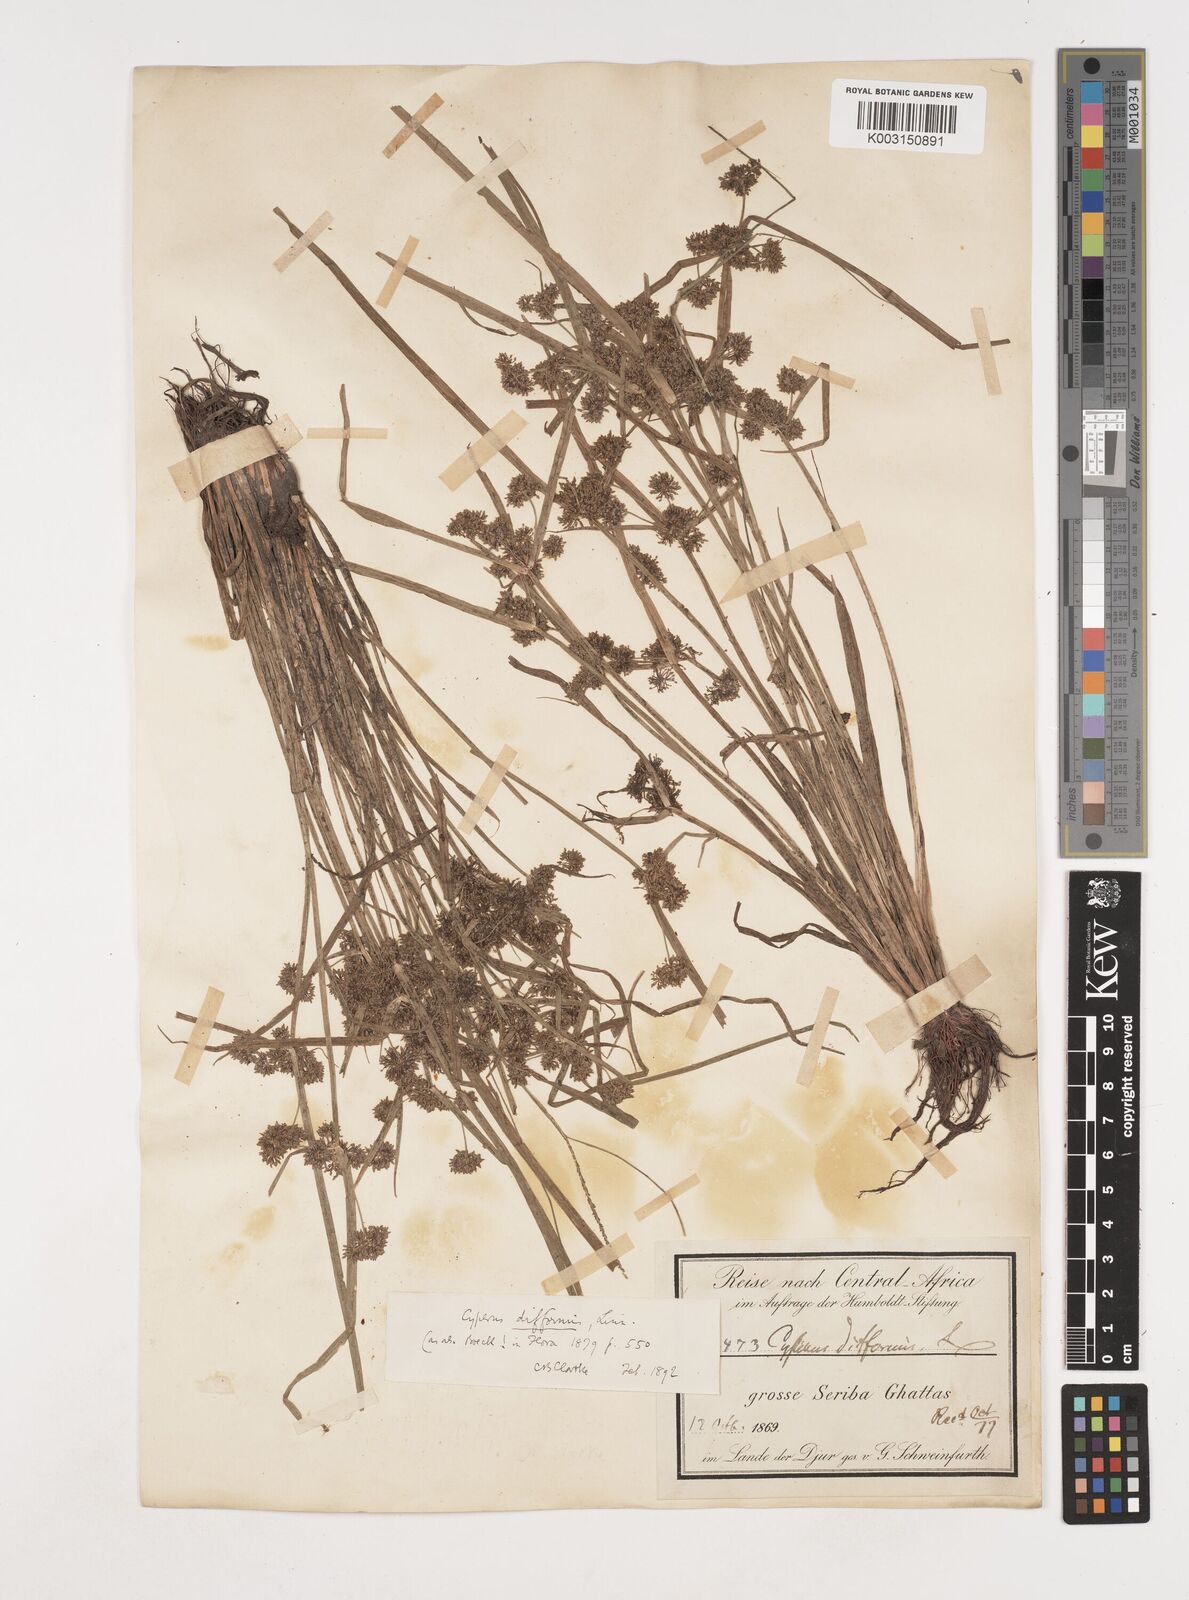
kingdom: Plantae
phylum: Tracheophyta
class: Liliopsida
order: Poales
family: Cyperaceae
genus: Cyperus
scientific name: Cyperus difformis
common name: Variable flatsedge
